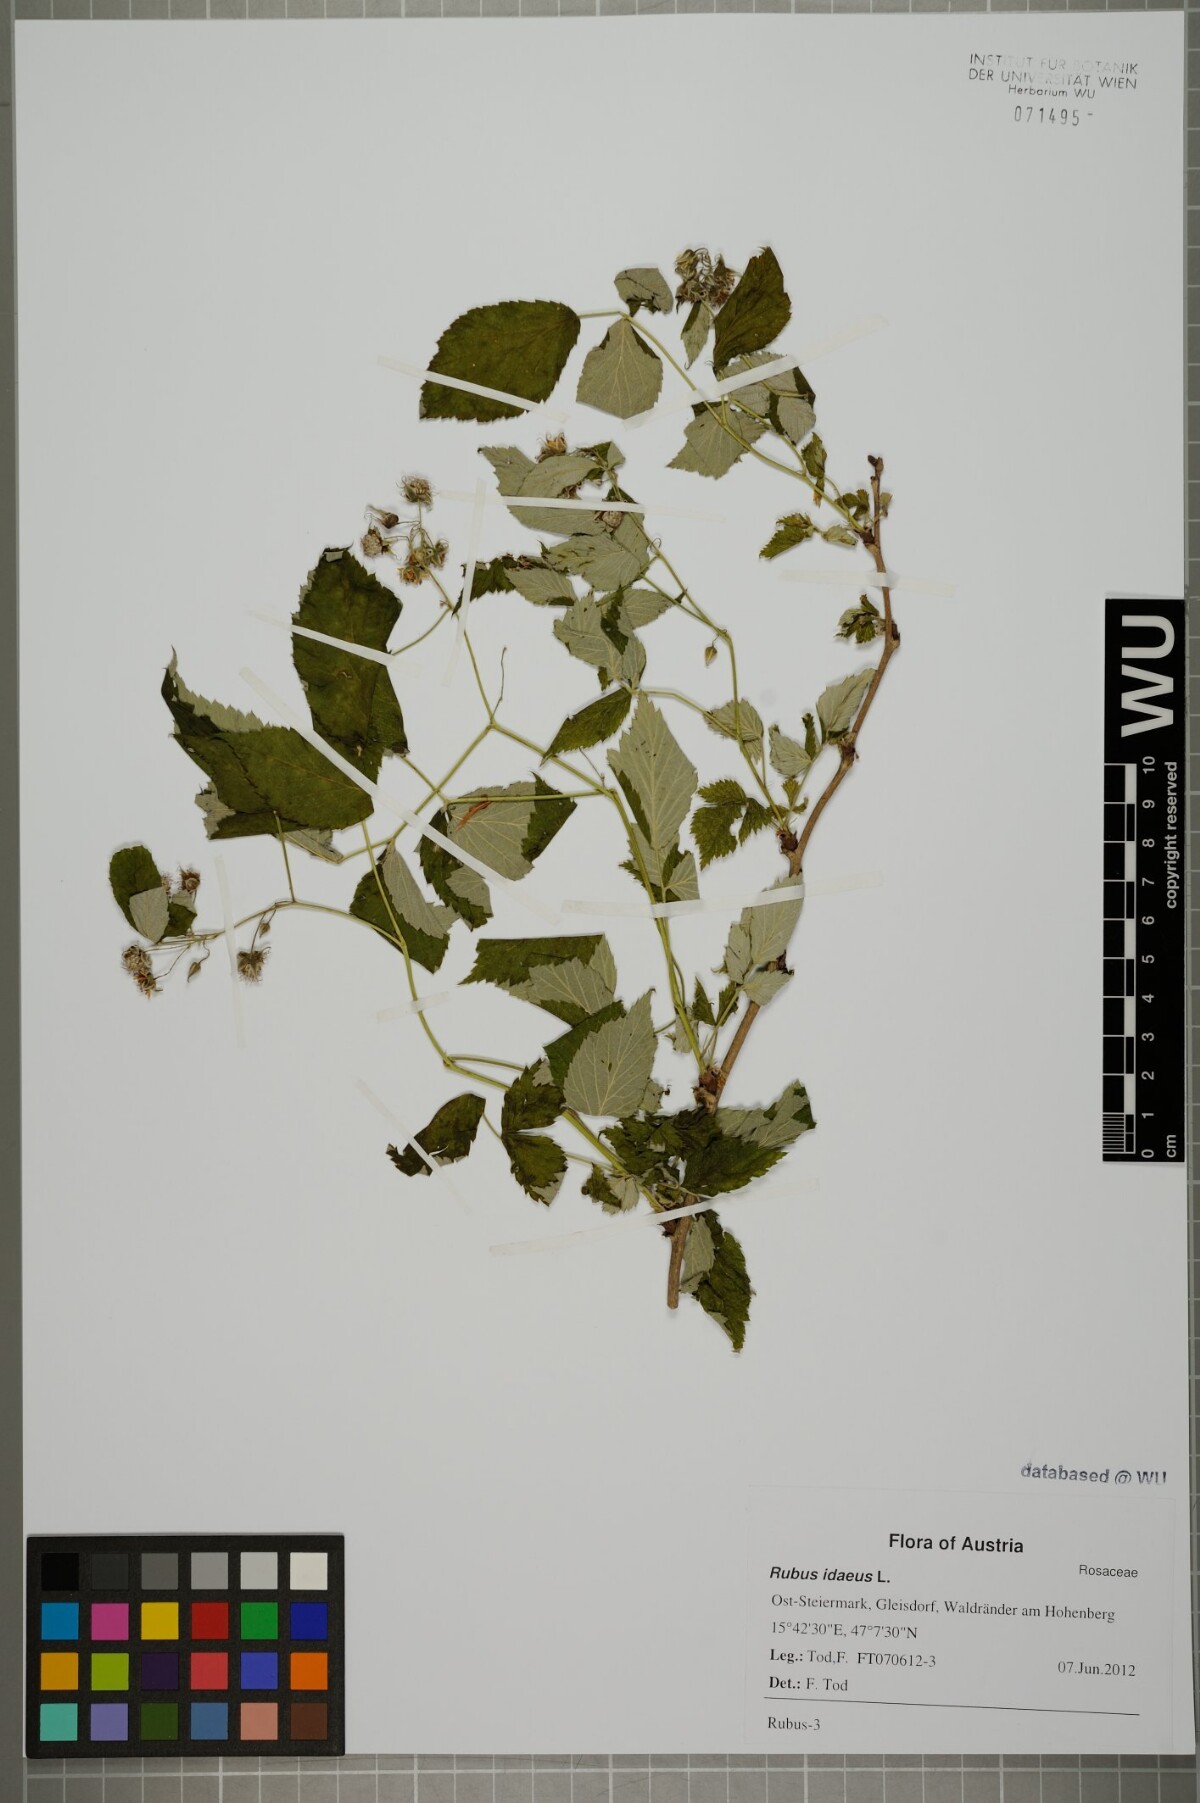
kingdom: Plantae
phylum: Tracheophyta
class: Magnoliopsida
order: Rosales
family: Rosaceae
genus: Rubus
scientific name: Rubus idaeus
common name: Raspberry
